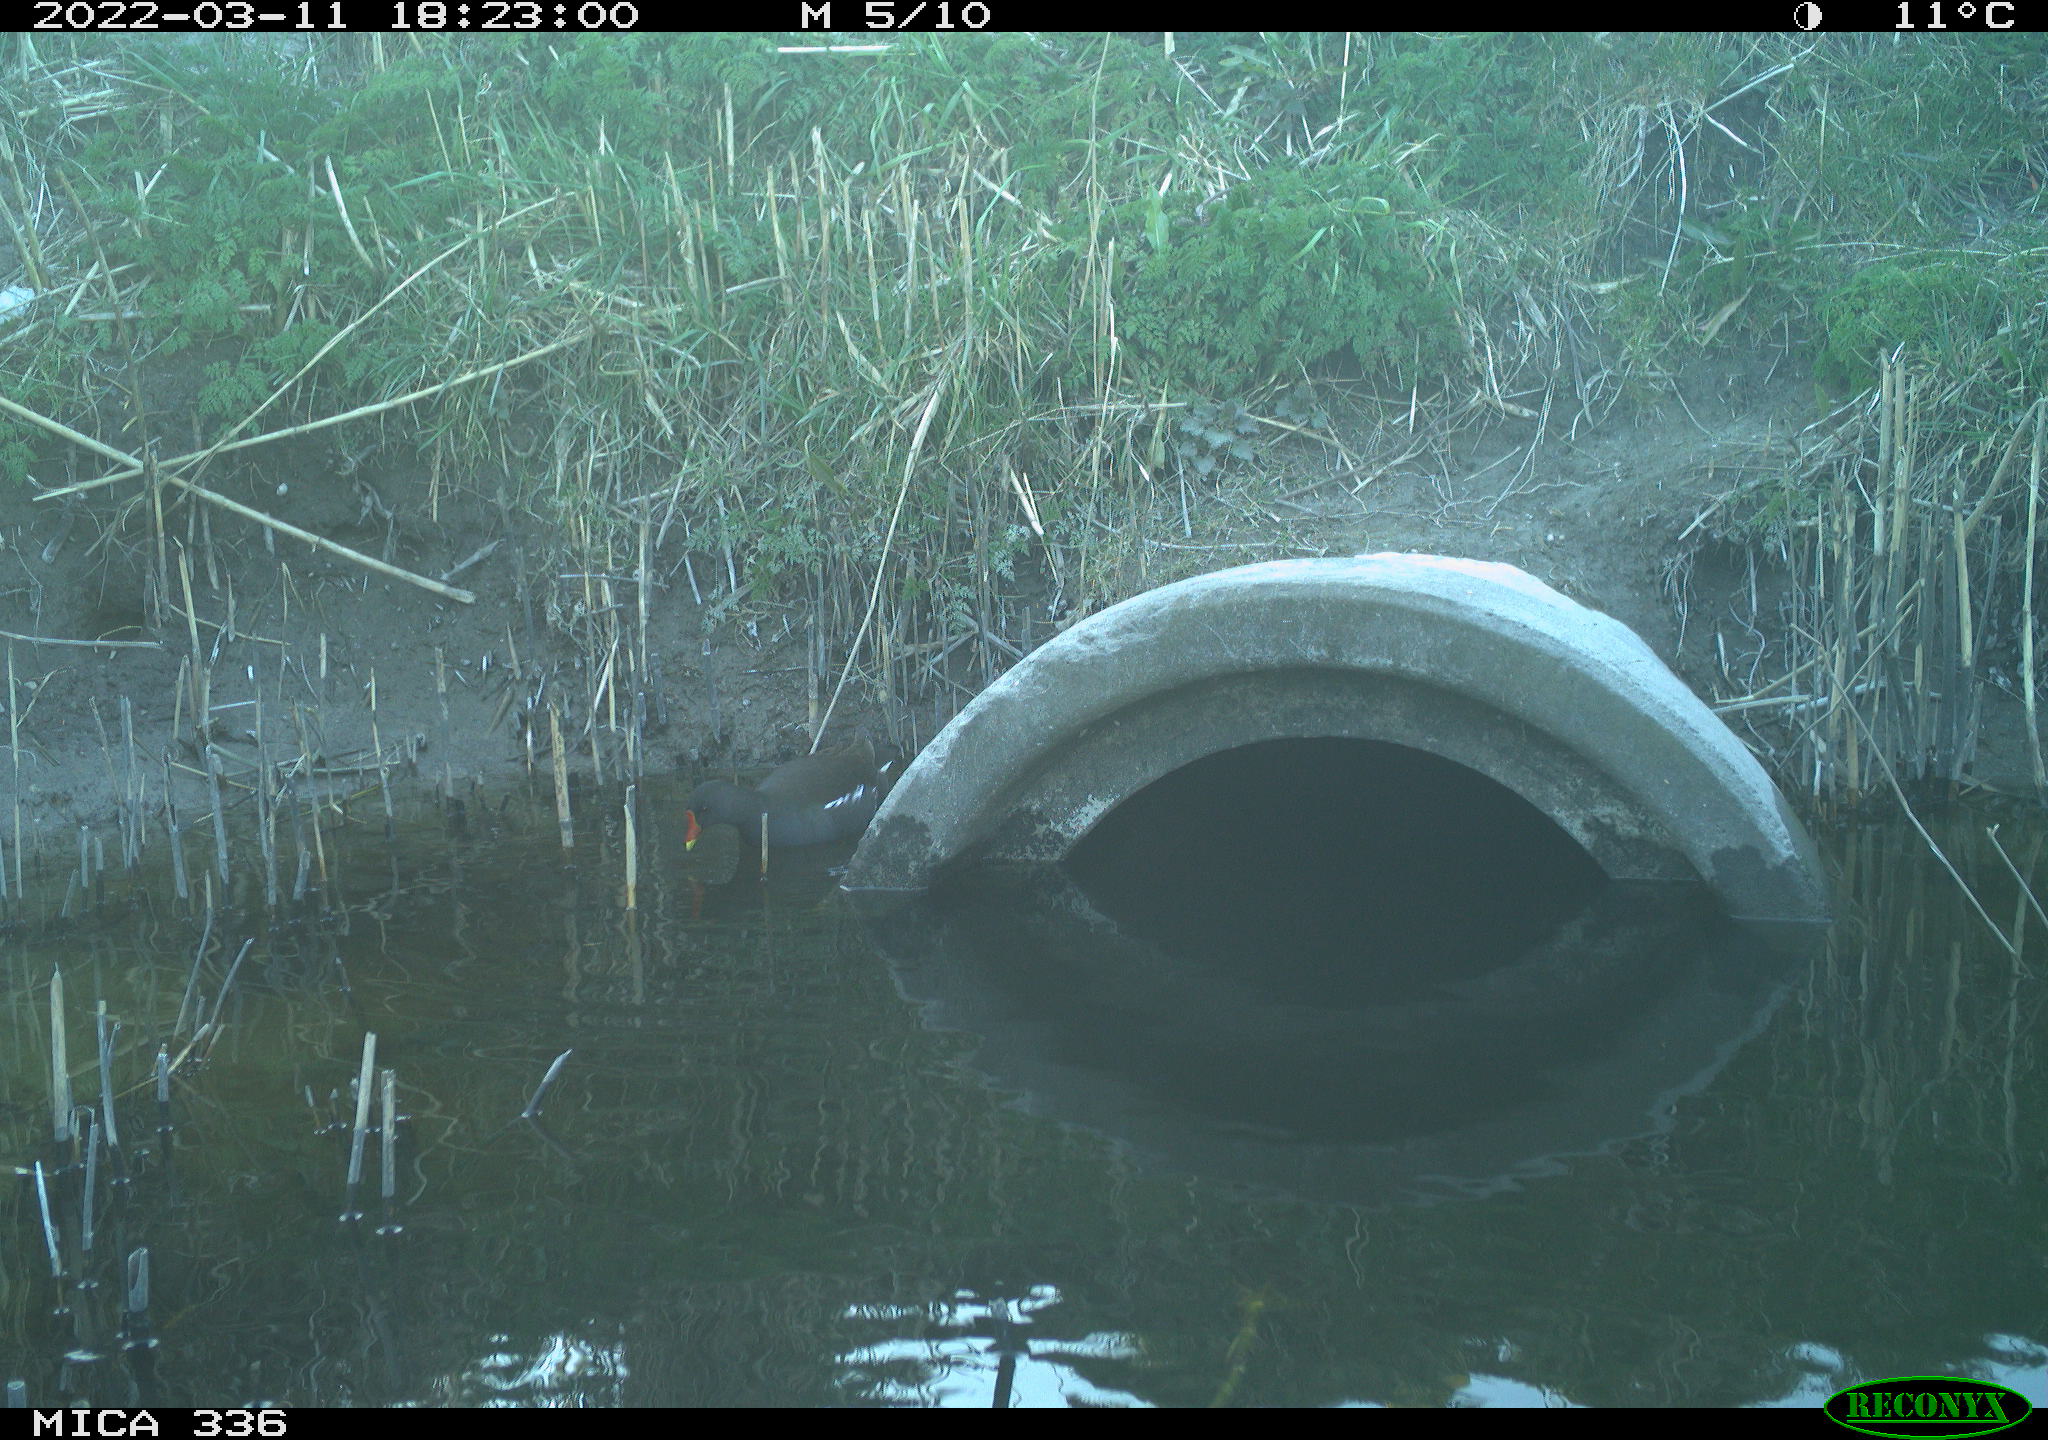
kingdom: Animalia
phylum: Chordata
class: Aves
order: Gruiformes
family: Rallidae
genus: Gallinula
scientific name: Gallinula chloropus
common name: Common moorhen
